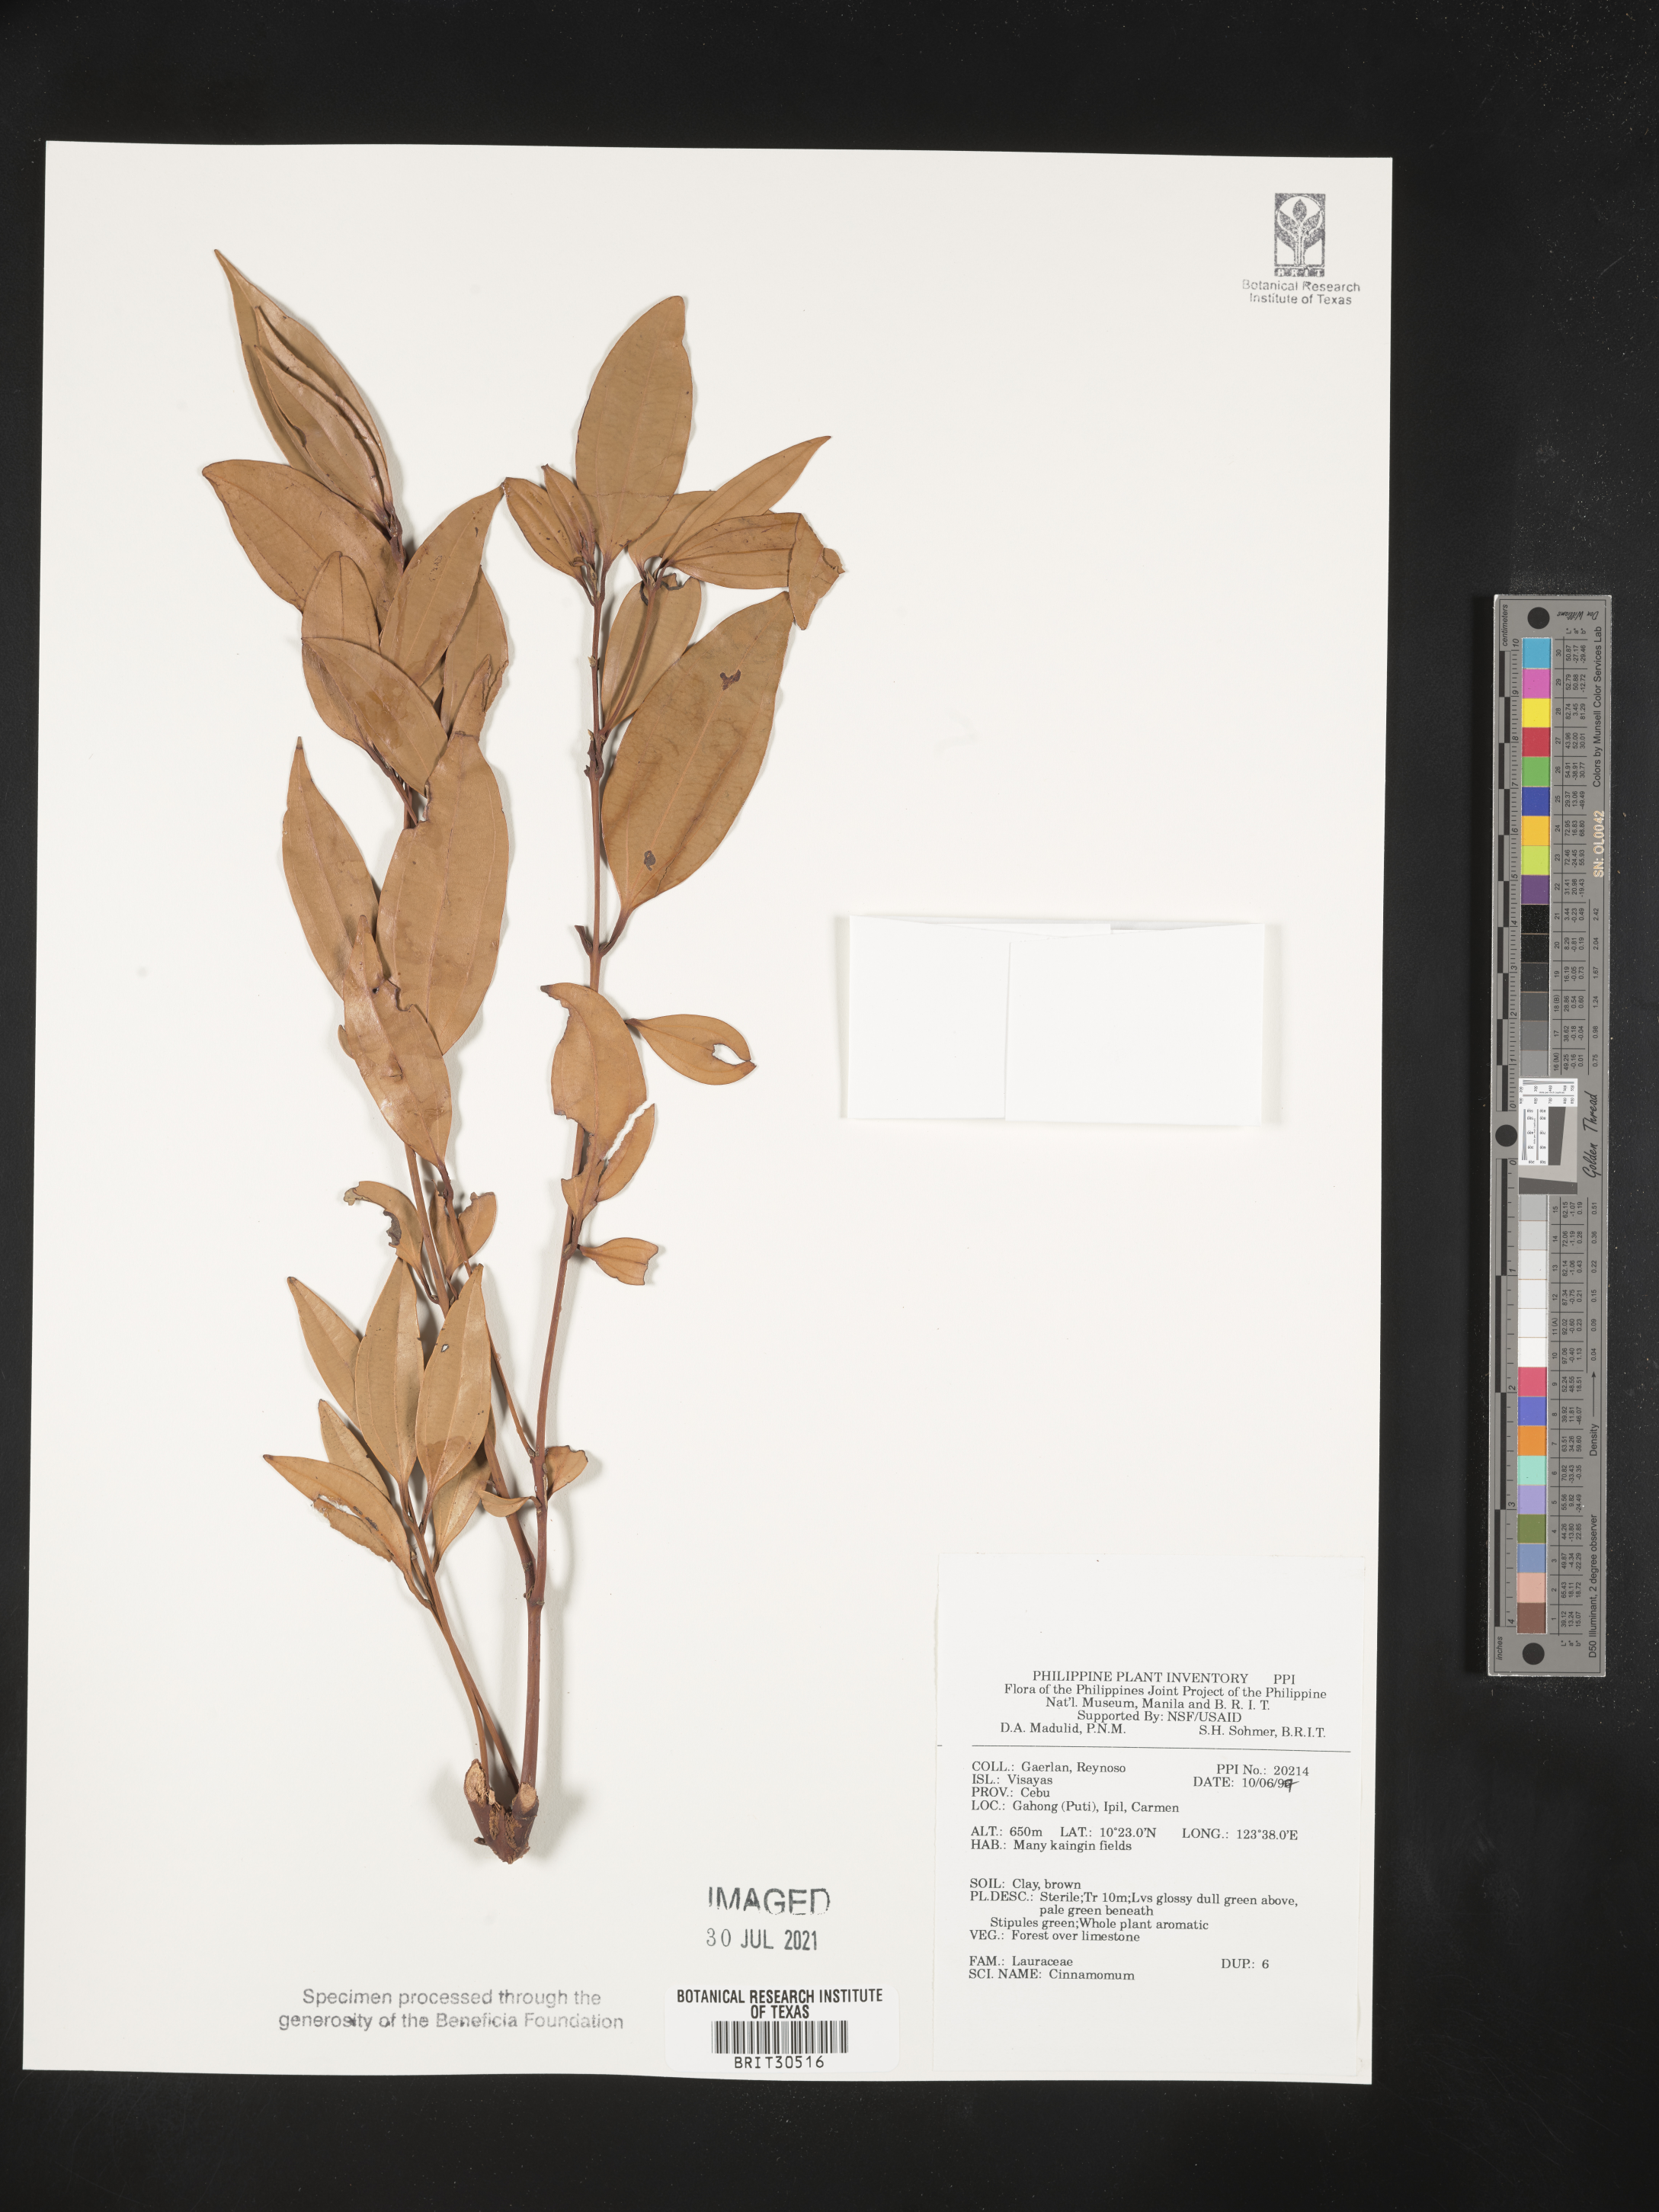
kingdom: Plantae
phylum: Tracheophyta
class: Magnoliopsida
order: Laurales
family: Lauraceae
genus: Cinnamomum
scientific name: Cinnamomum
